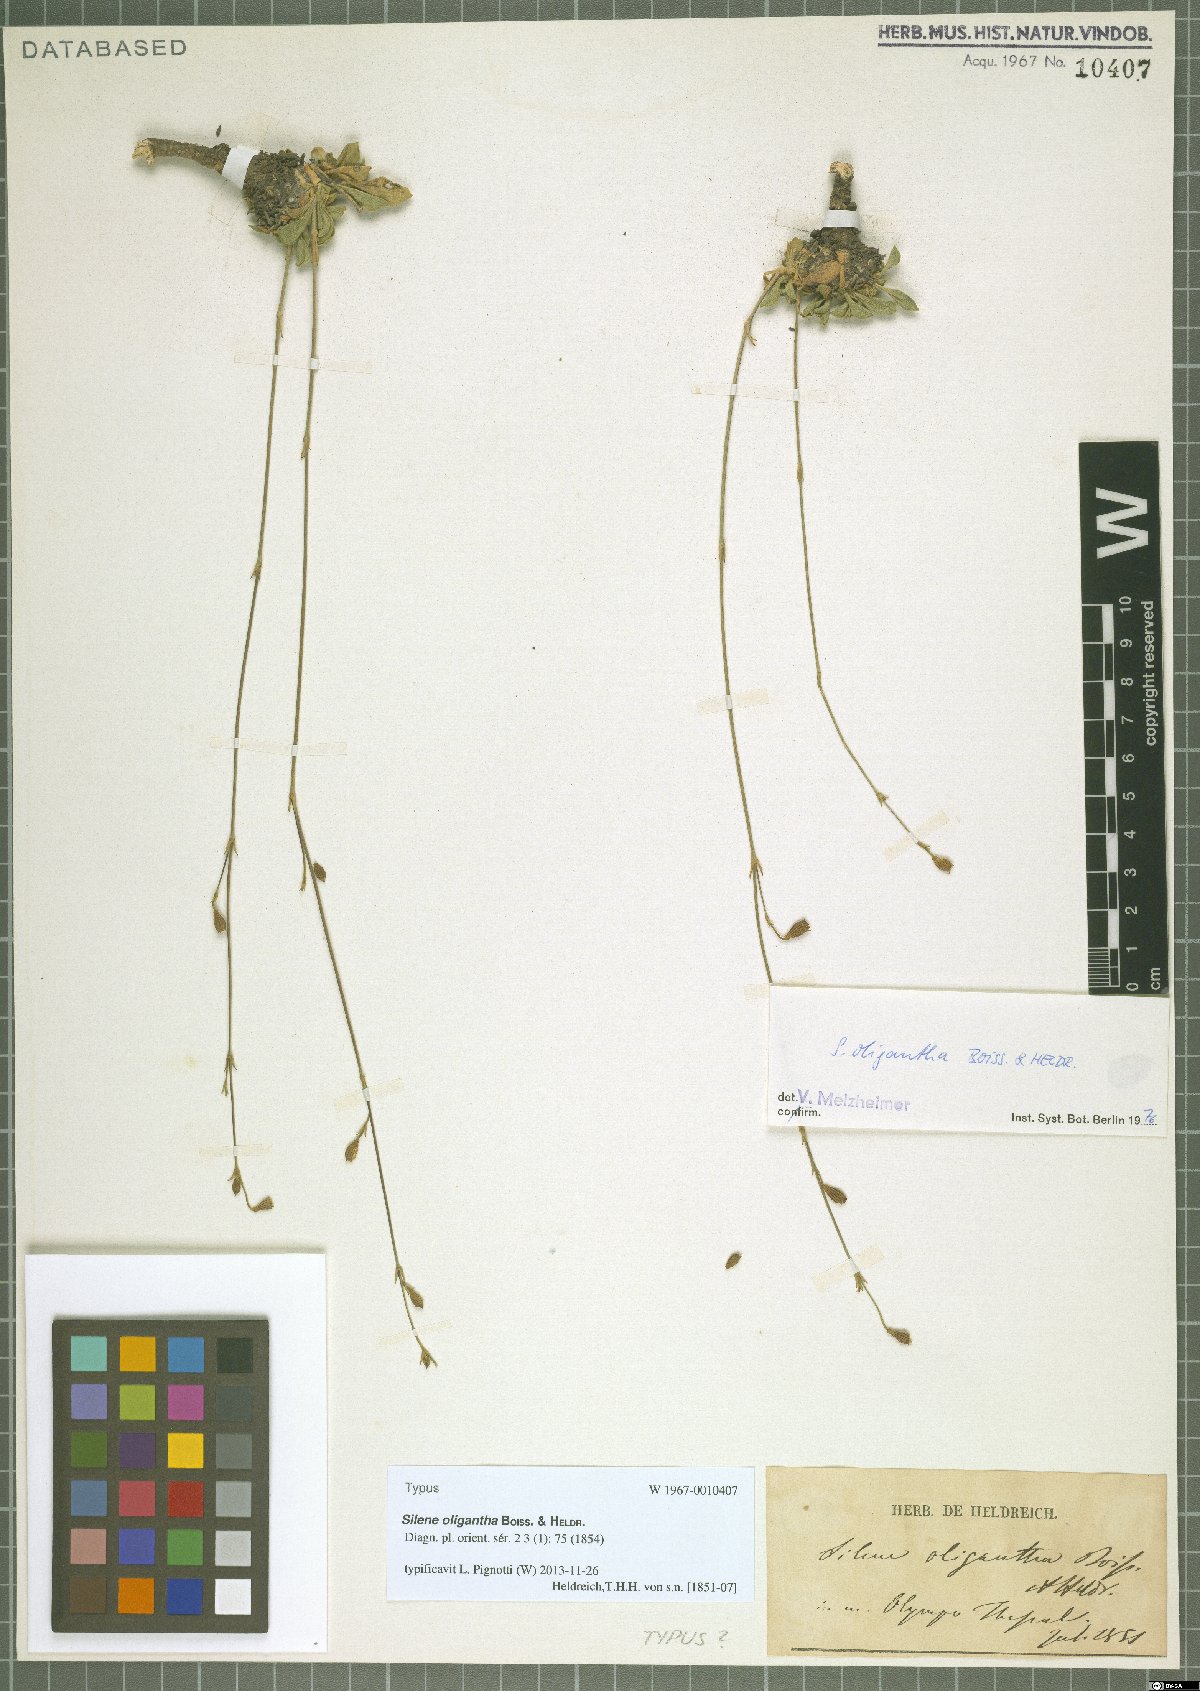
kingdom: Plantae
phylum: Tracheophyta
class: Magnoliopsida
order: Caryophyllales
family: Caryophyllaceae
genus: Silene
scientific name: Silene oligantha
